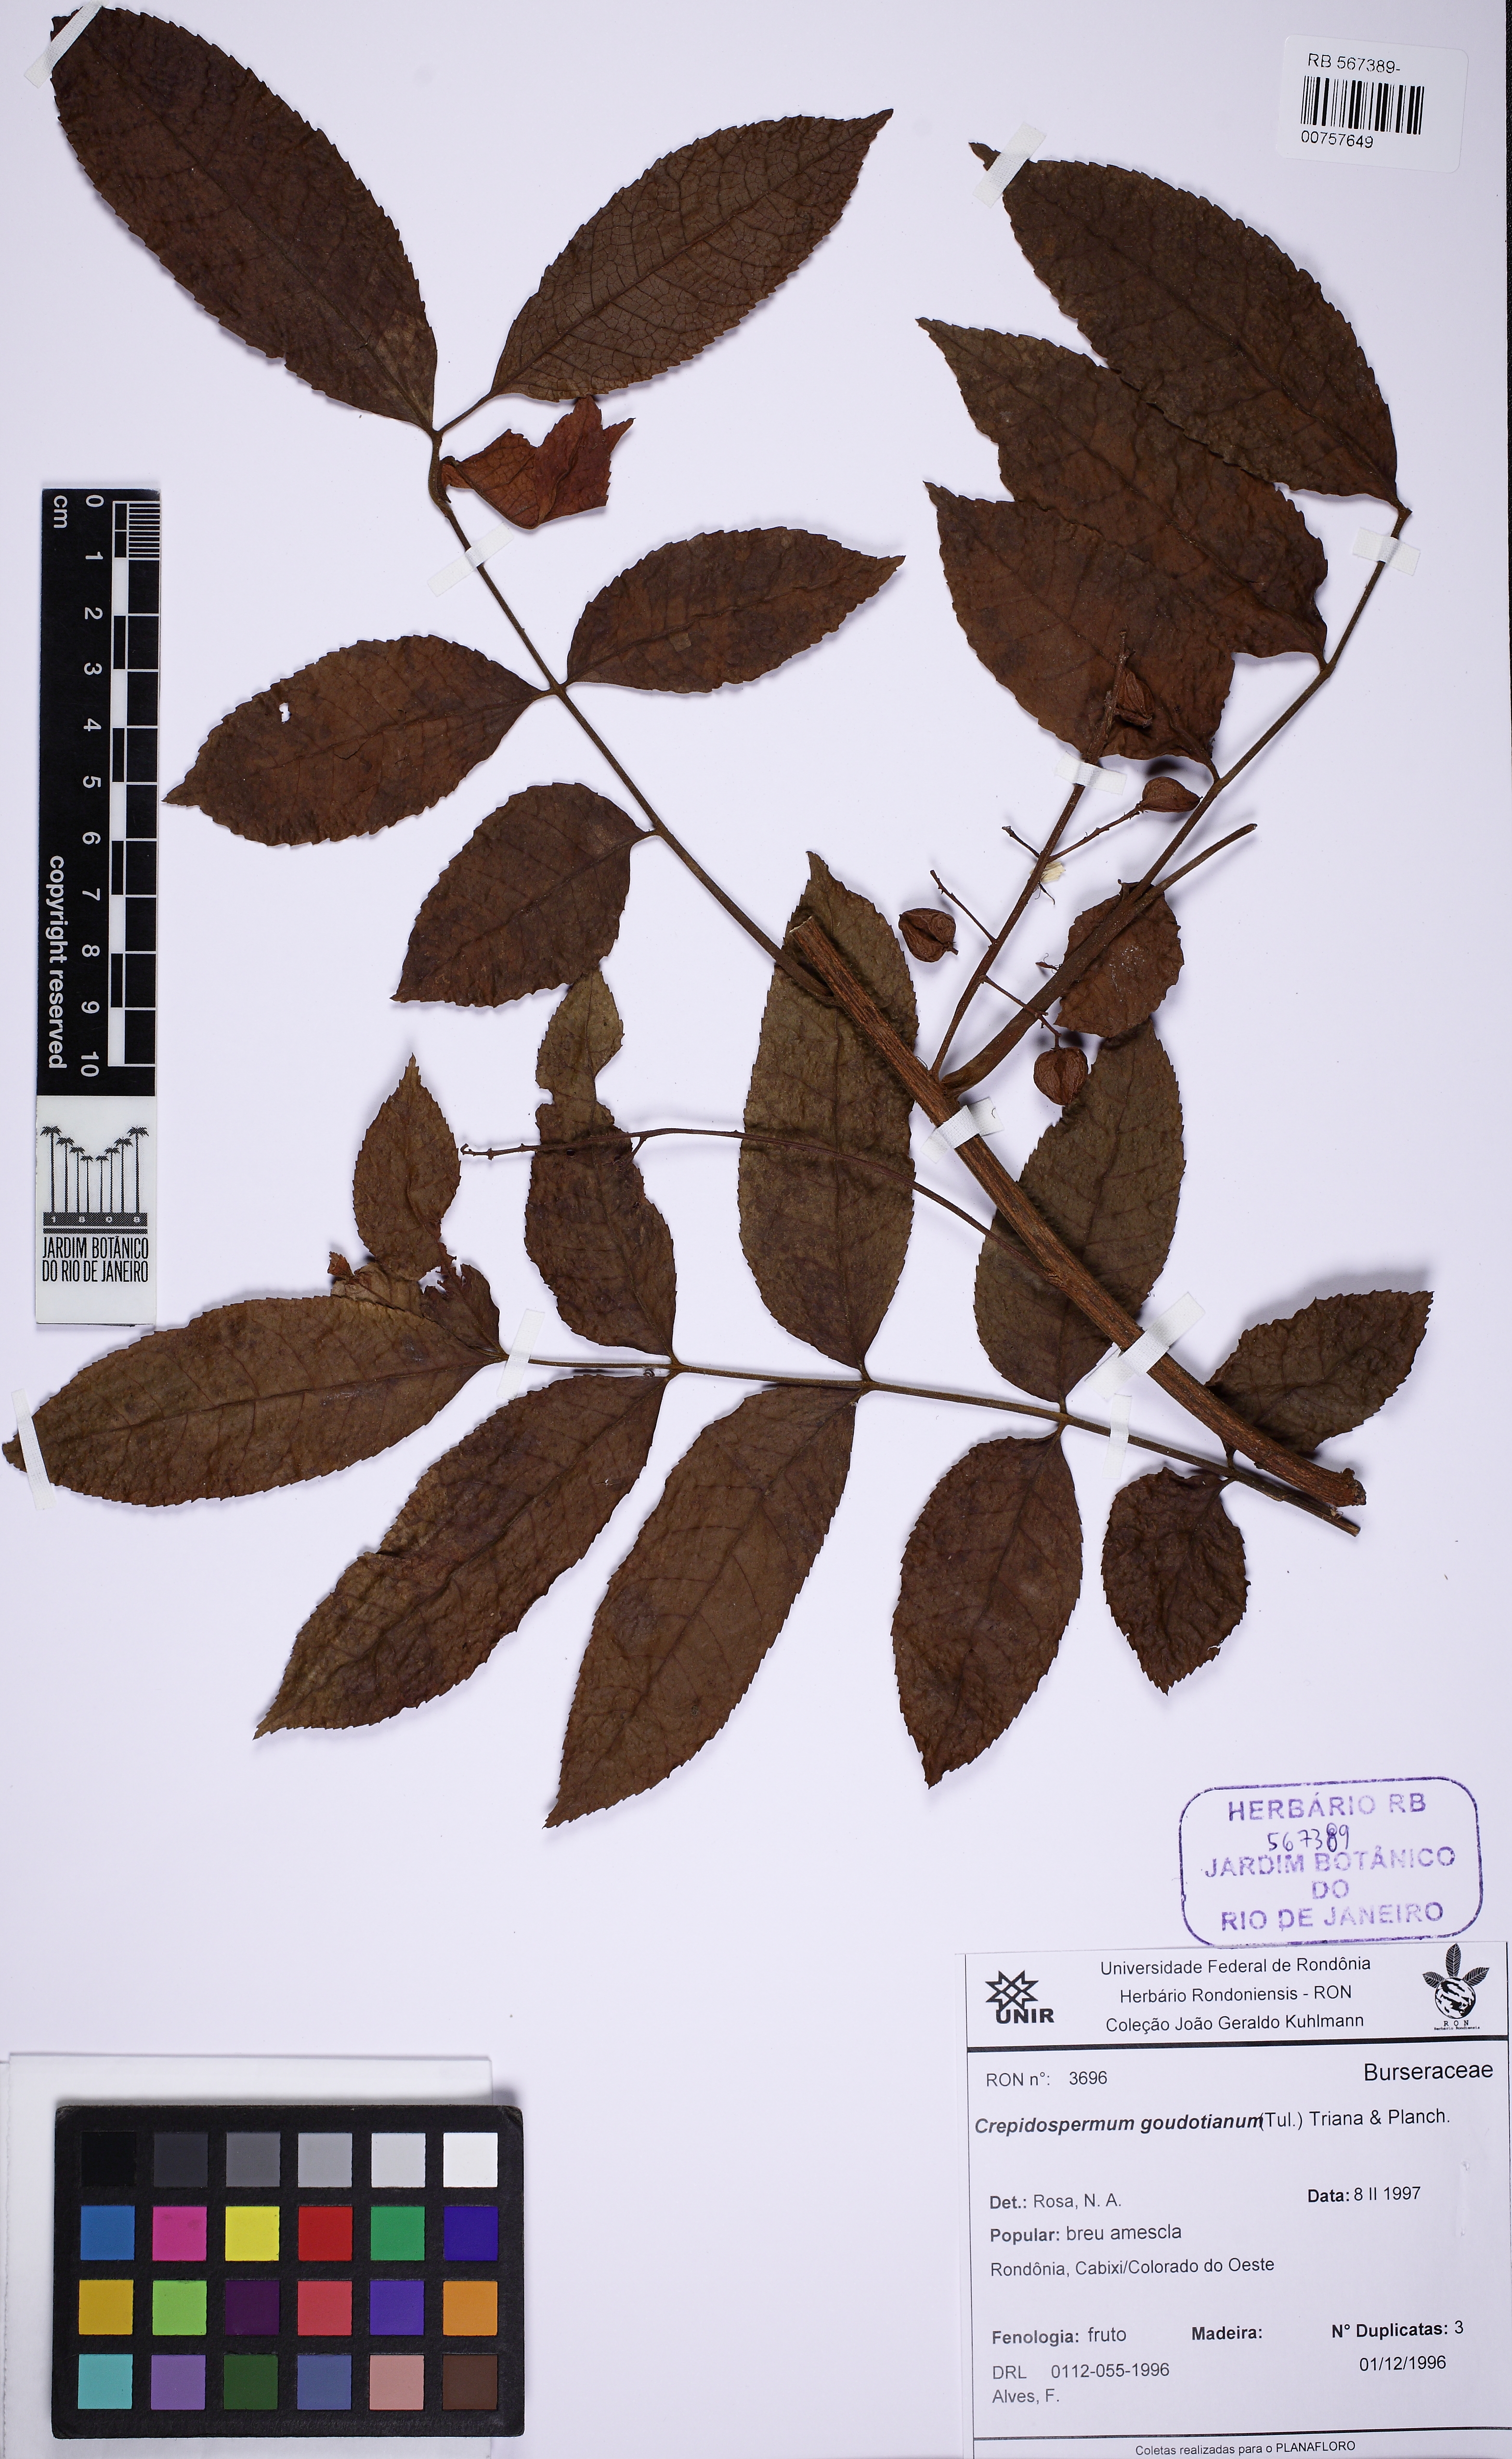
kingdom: Plantae
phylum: Tracheophyta
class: Magnoliopsida
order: Sapindales
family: Burseraceae
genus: Crepidospermum
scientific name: Crepidospermum goudotianum
